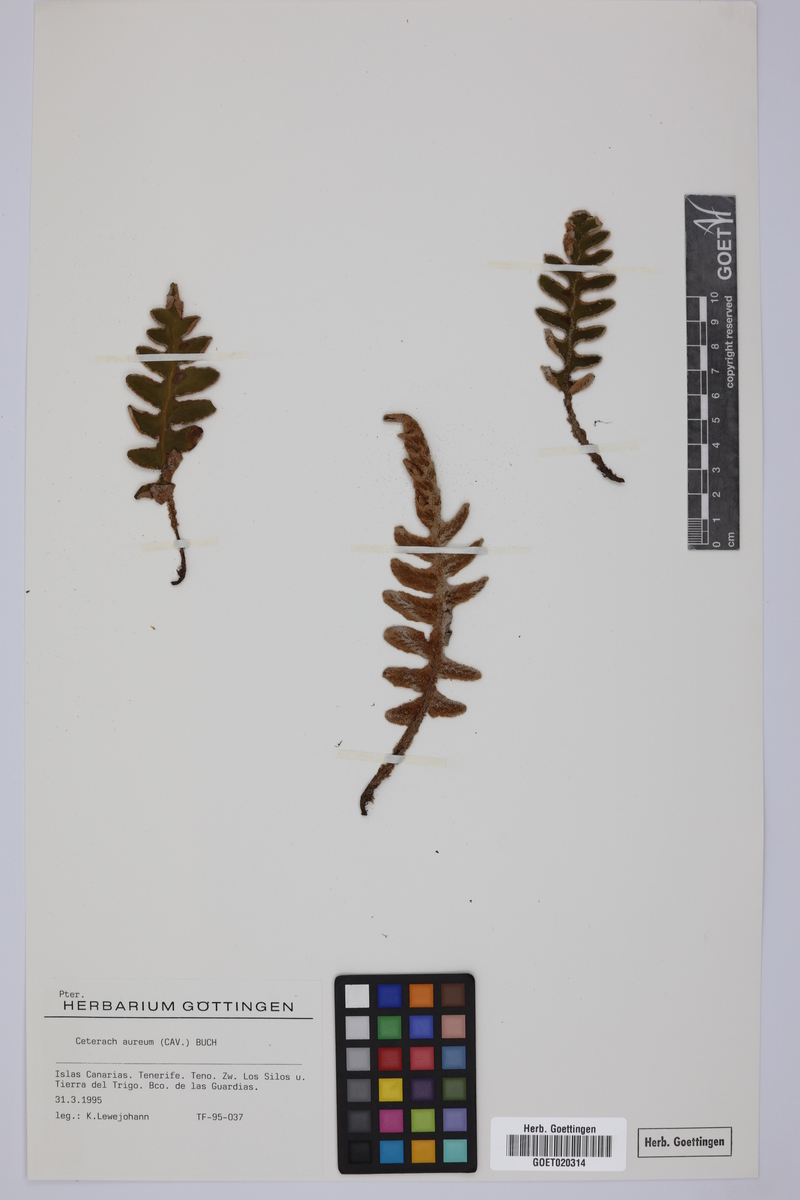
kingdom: Plantae
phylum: Tracheophyta
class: Polypodiopsida
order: Polypodiales
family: Aspleniaceae
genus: Asplenium
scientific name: Asplenium aureum
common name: Golden rustyback fern
